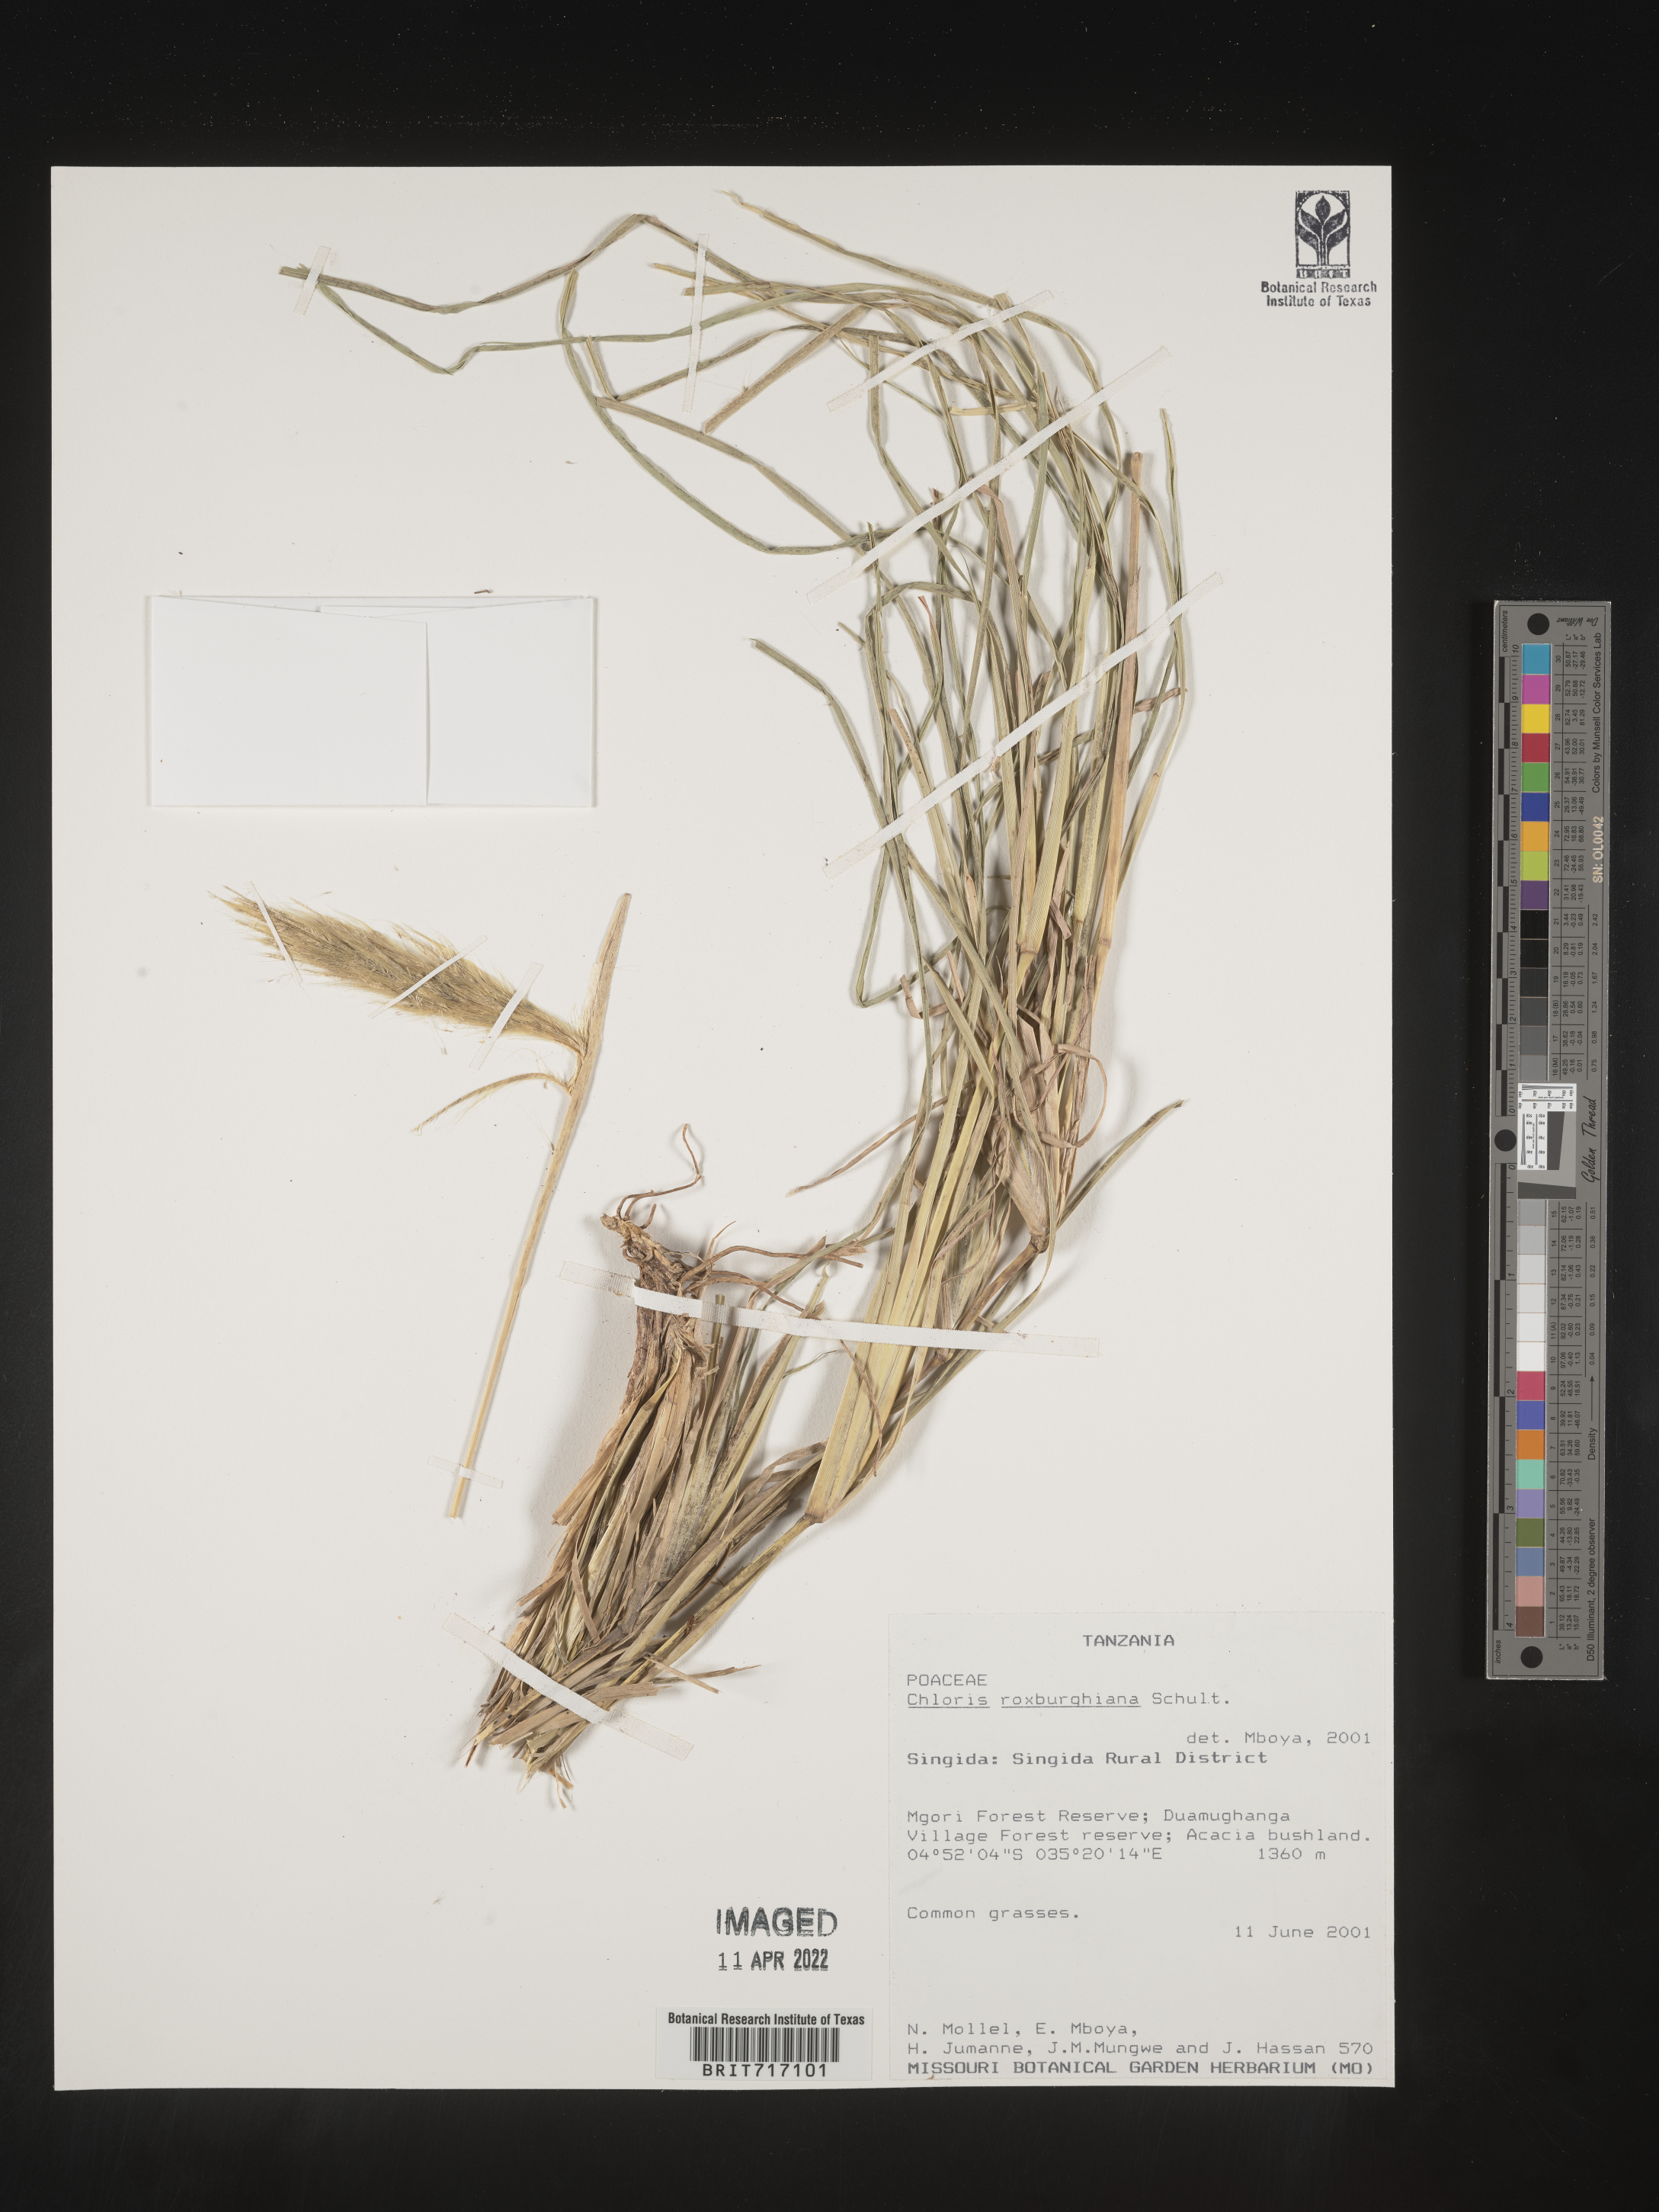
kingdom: Plantae
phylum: Tracheophyta
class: Liliopsida
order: Poales
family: Poaceae
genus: Chloris
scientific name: Chloris
